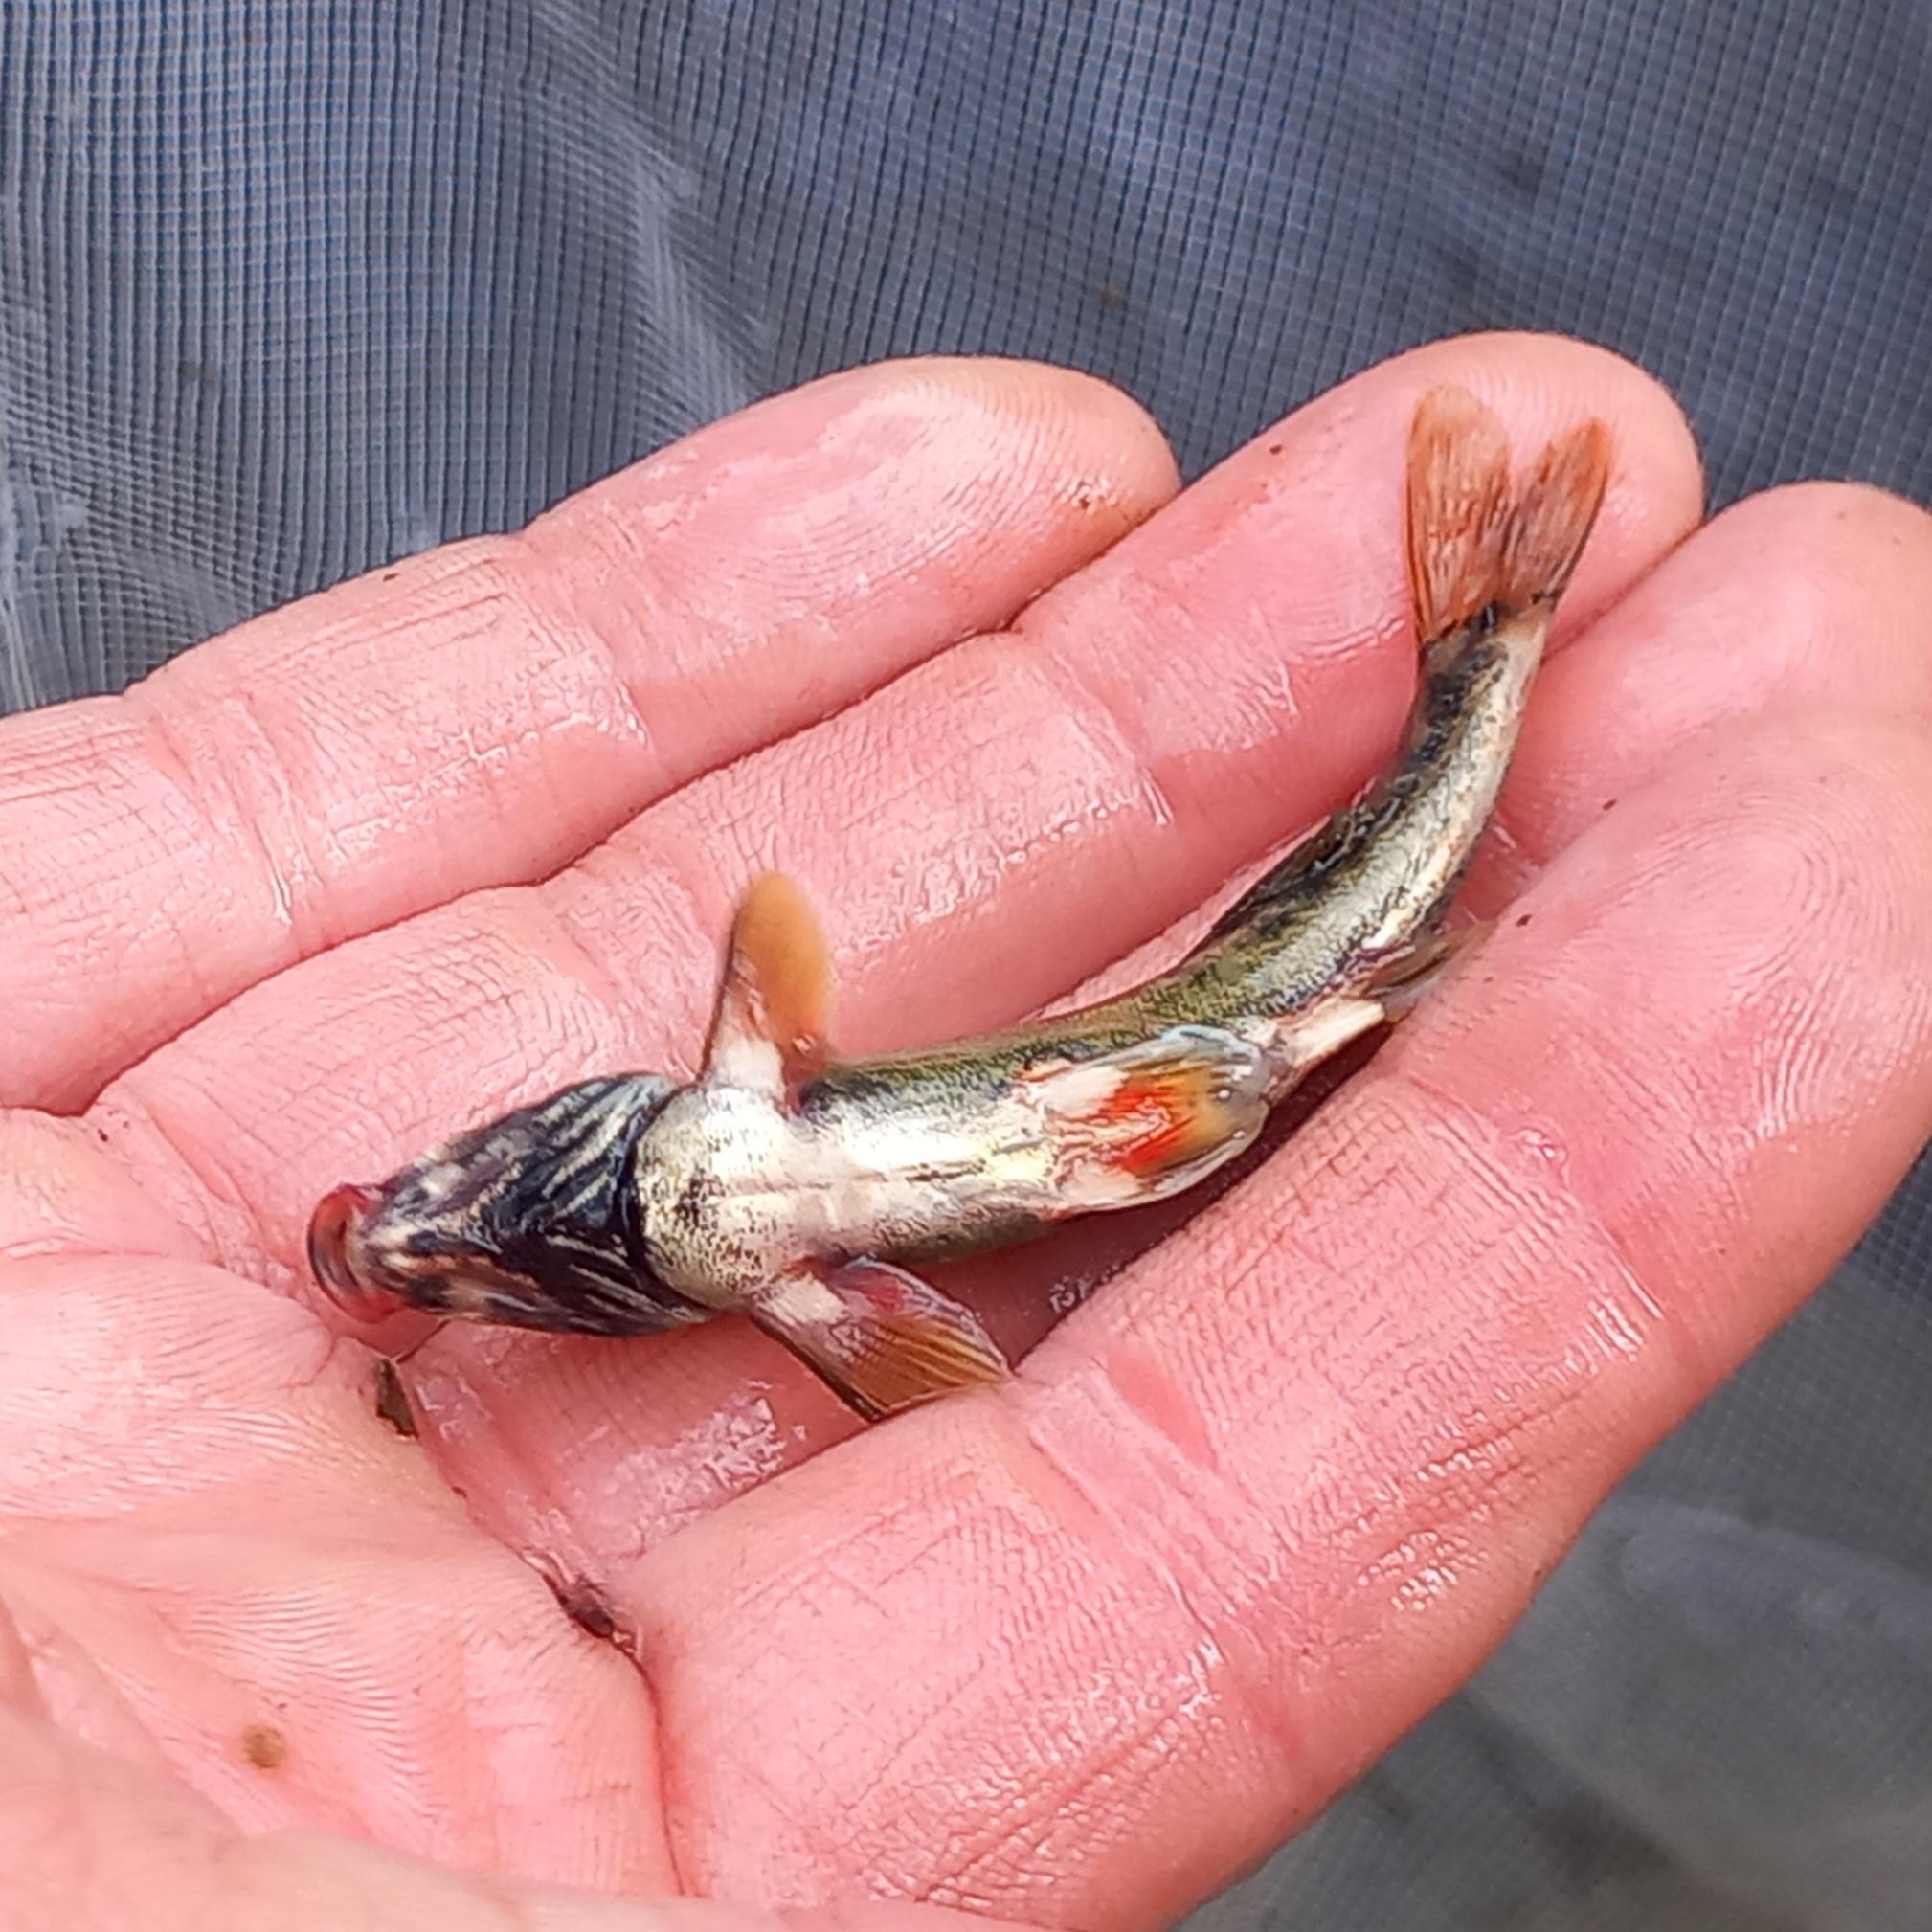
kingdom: Animalia
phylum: Chordata
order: Cypriniformes
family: Cyprinidae
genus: Phoxinus
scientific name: Phoxinus phoxinus
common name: Elritse
